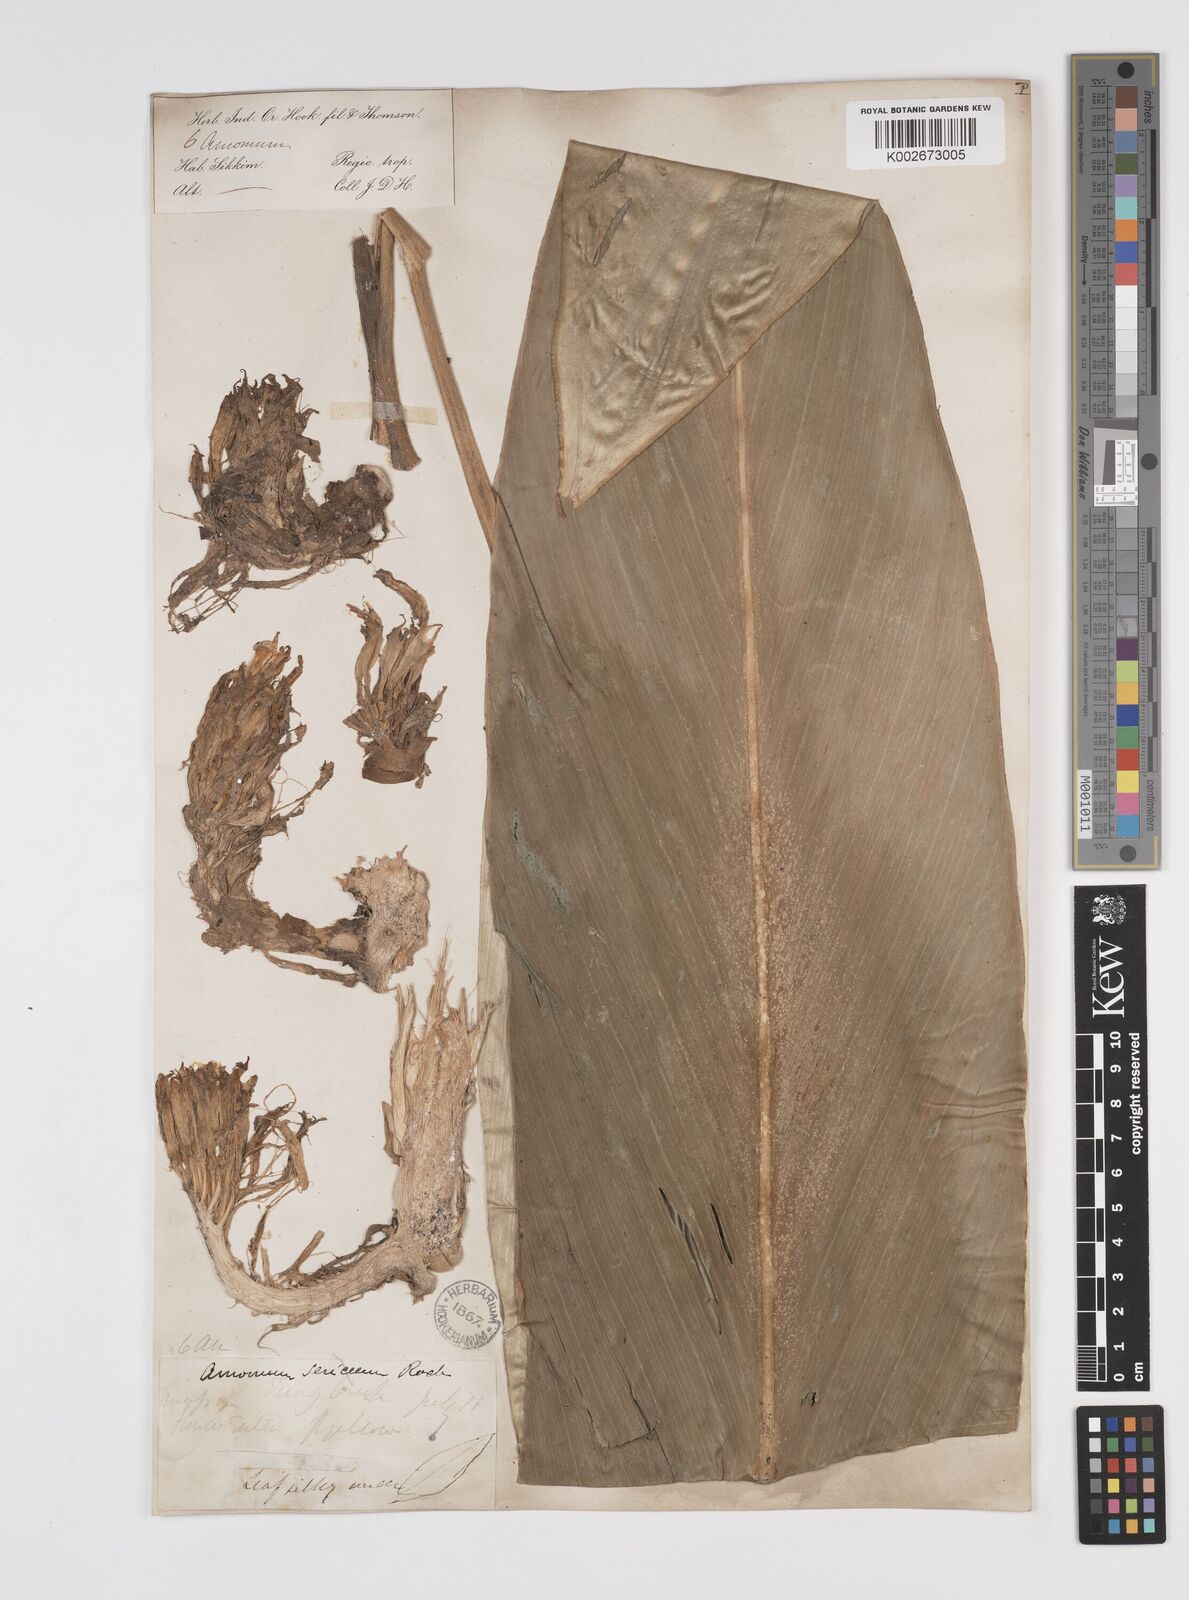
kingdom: Plantae
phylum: Tracheophyta
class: Liliopsida
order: Zingiberales
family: Zingiberaceae
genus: Amomum
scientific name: Amomum dealbatum
